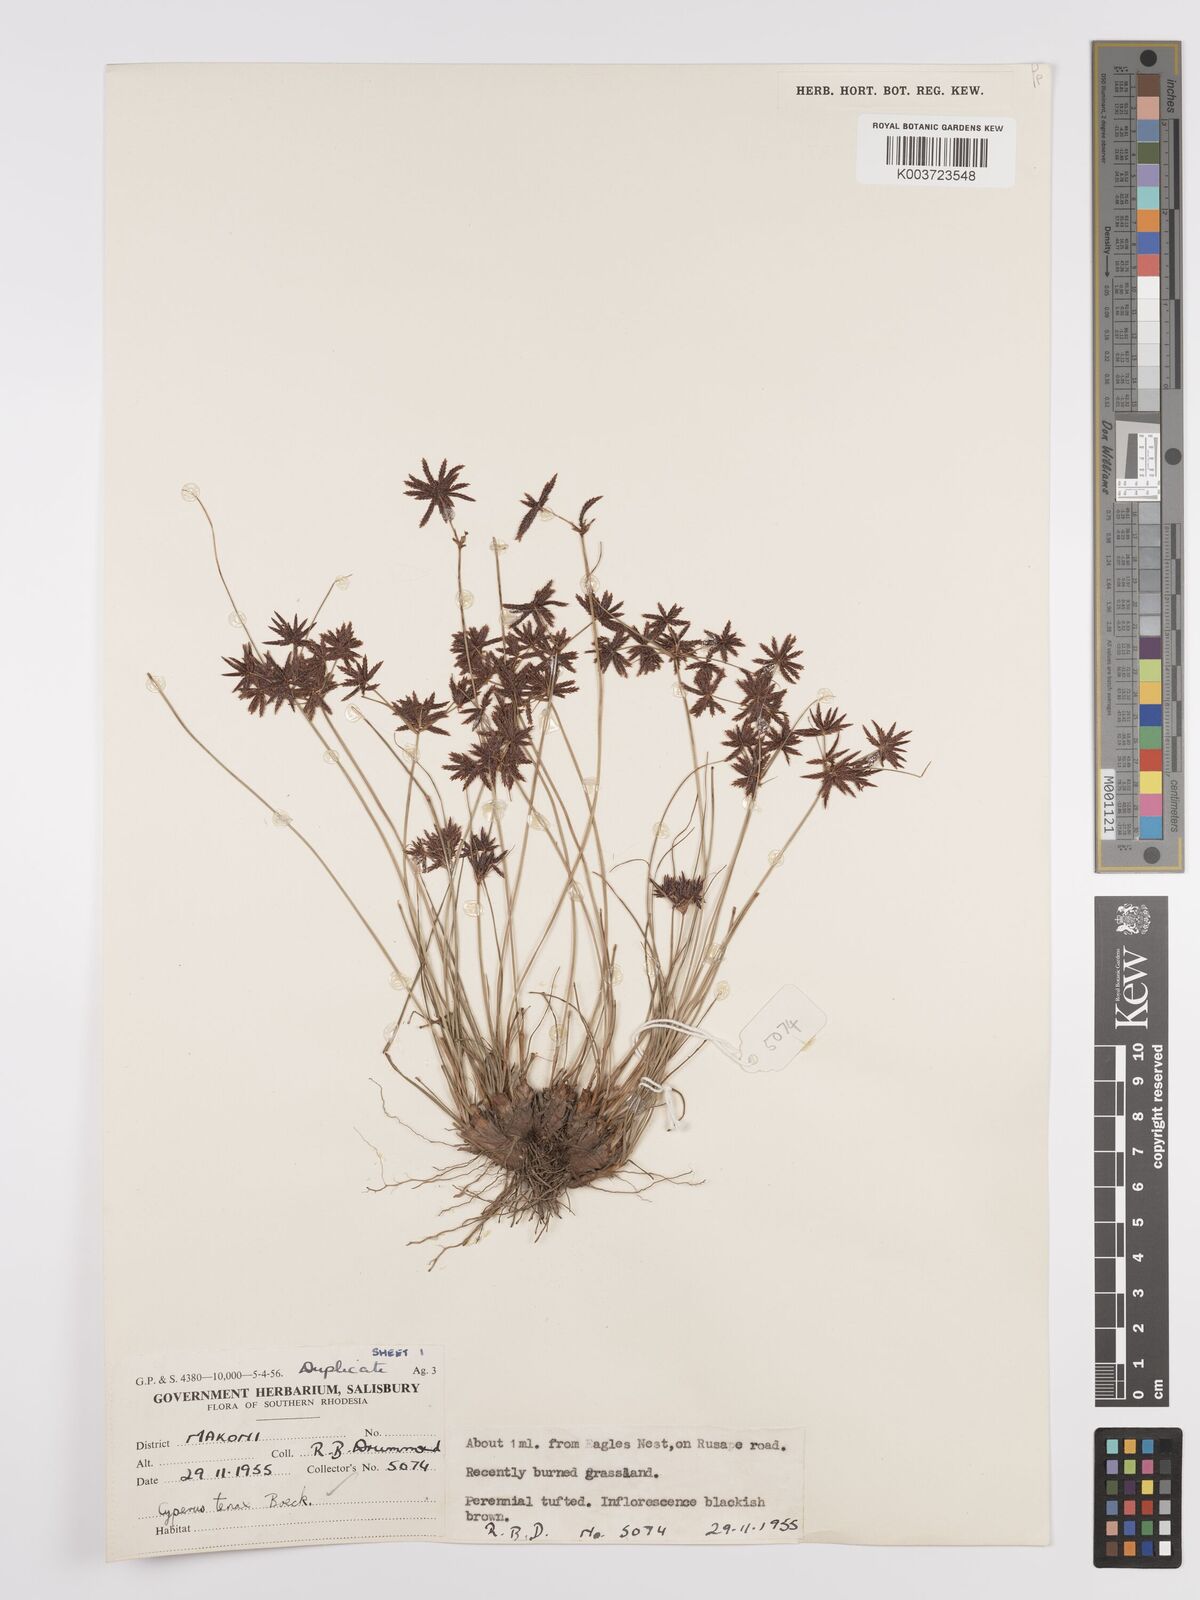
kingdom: Plantae
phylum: Tracheophyta
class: Liliopsida
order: Poales
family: Cyperaceae
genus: Cyperus
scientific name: Cyperus tenax
